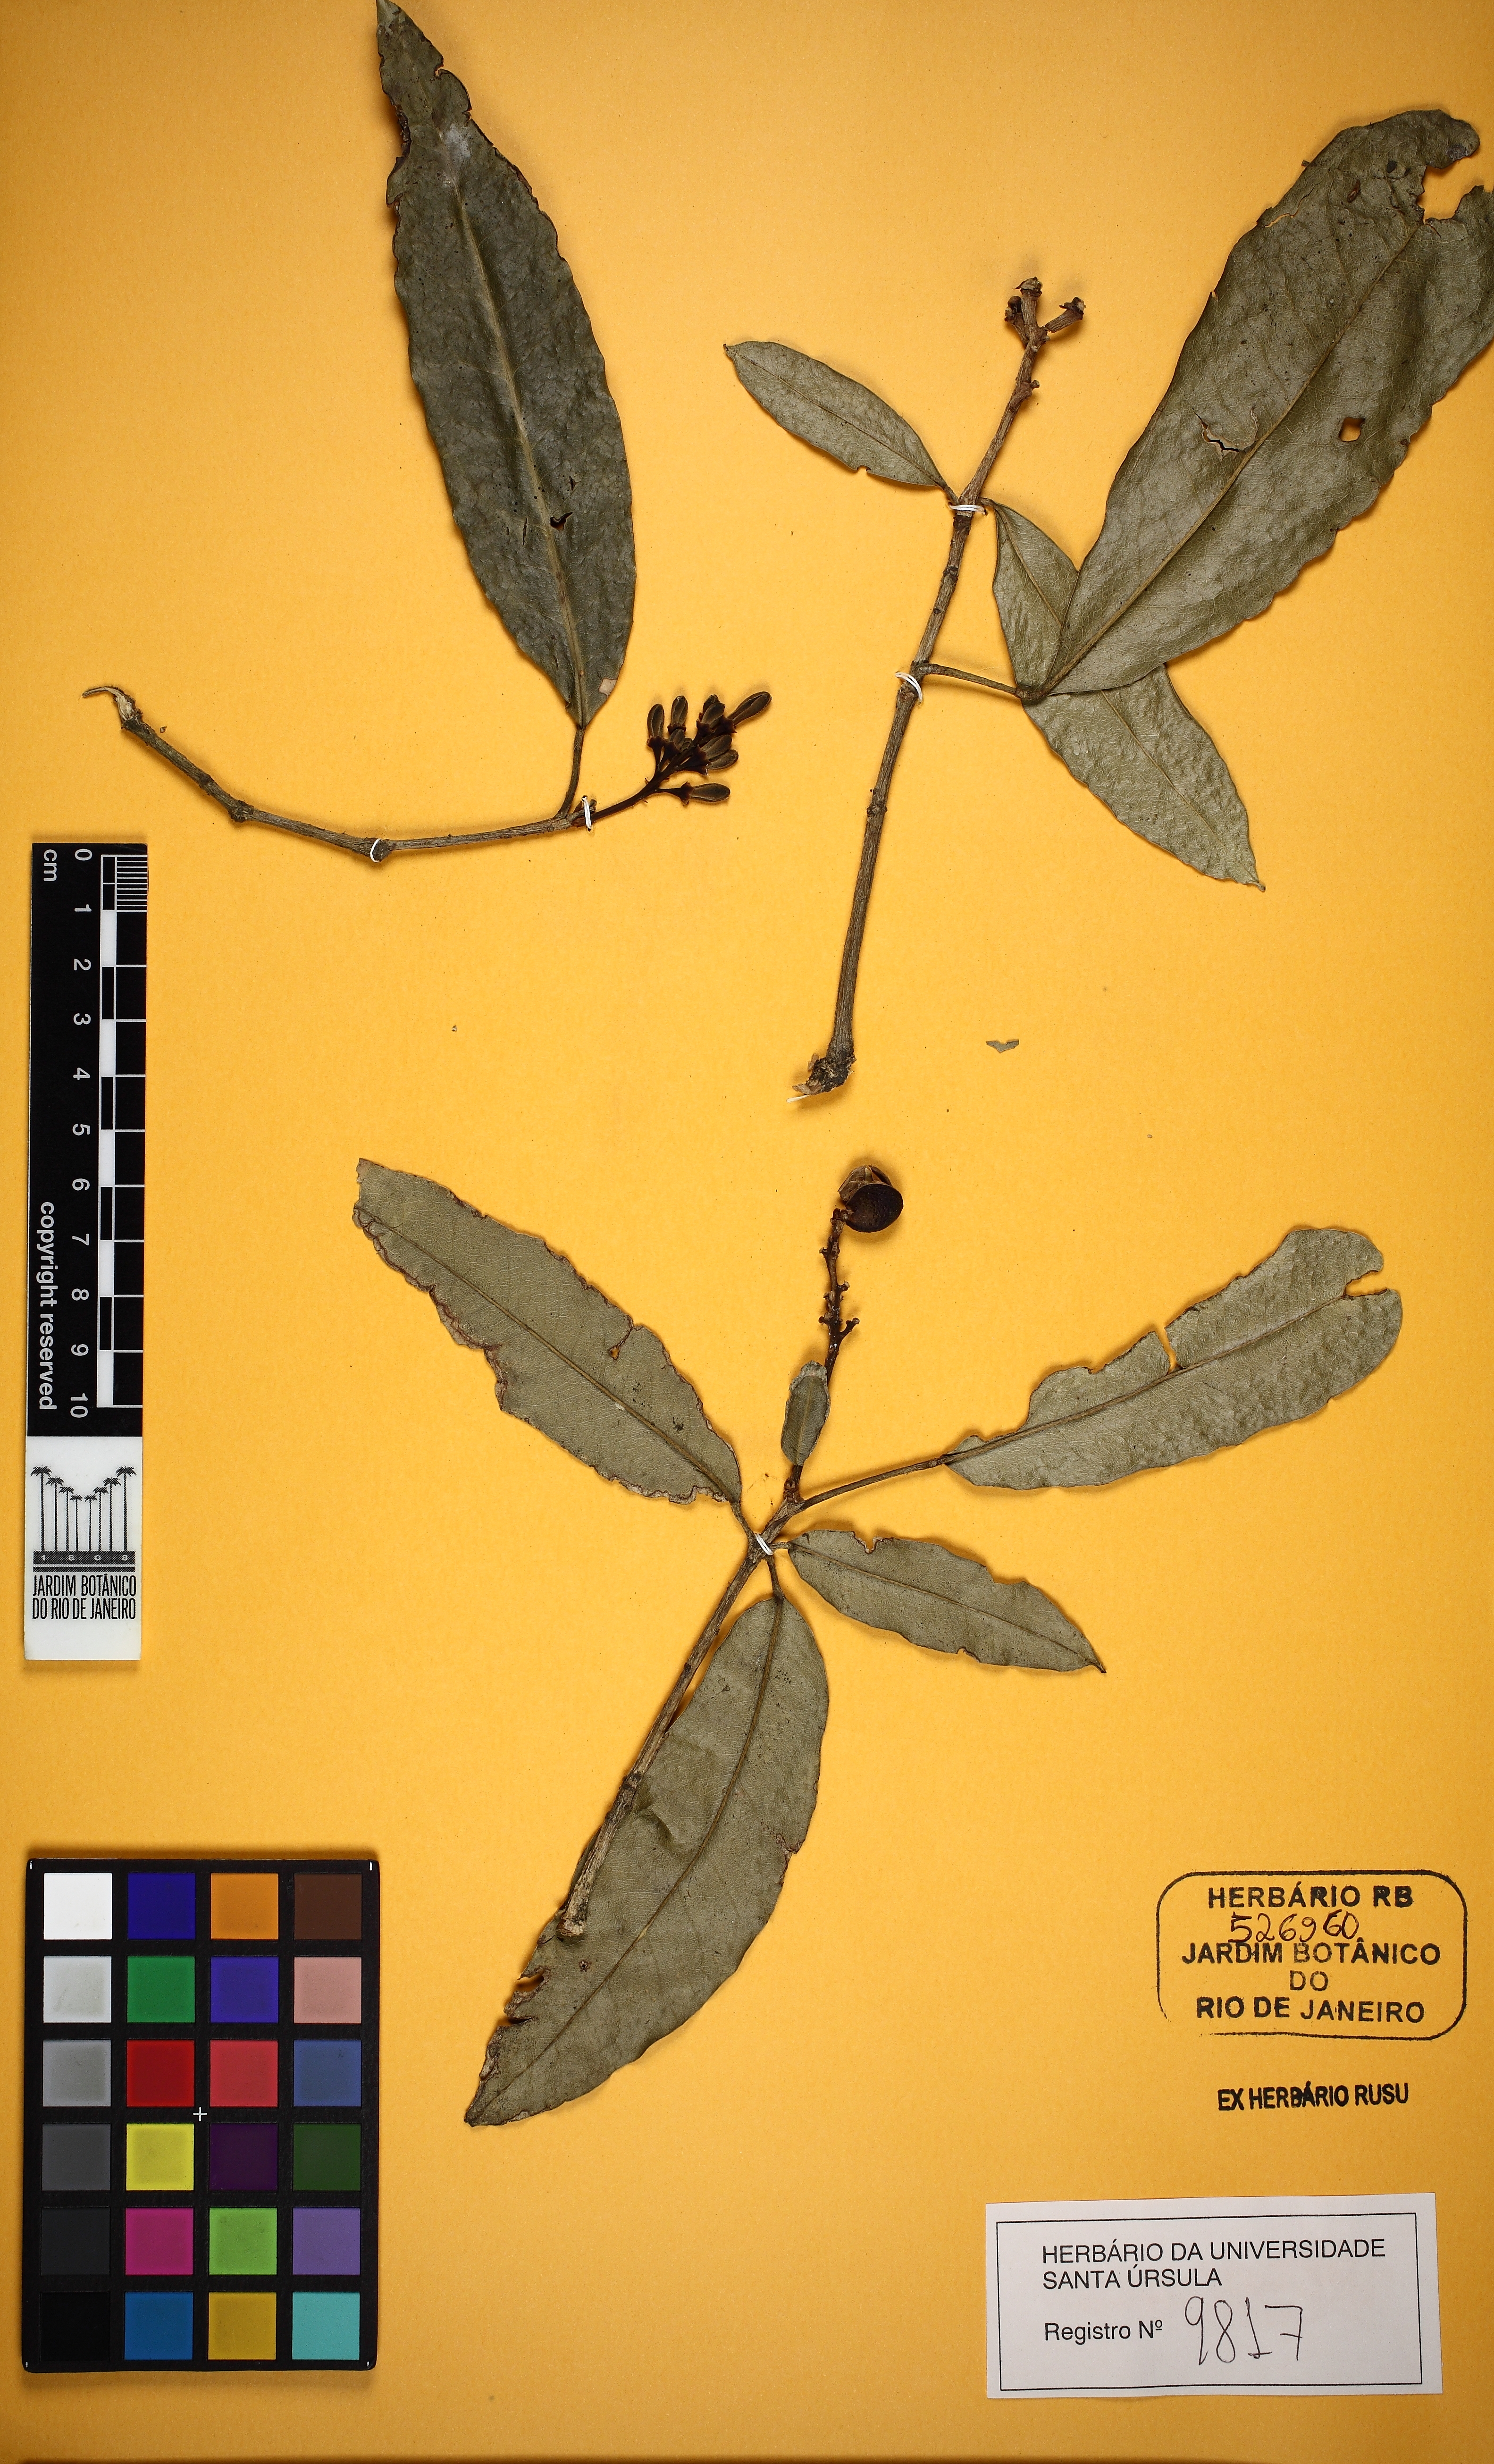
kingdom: Plantae
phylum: Tracheophyta
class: Magnoliopsida
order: Sapindales
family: Rutaceae
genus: Conchocarpus
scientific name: Conchocarpus ruber
